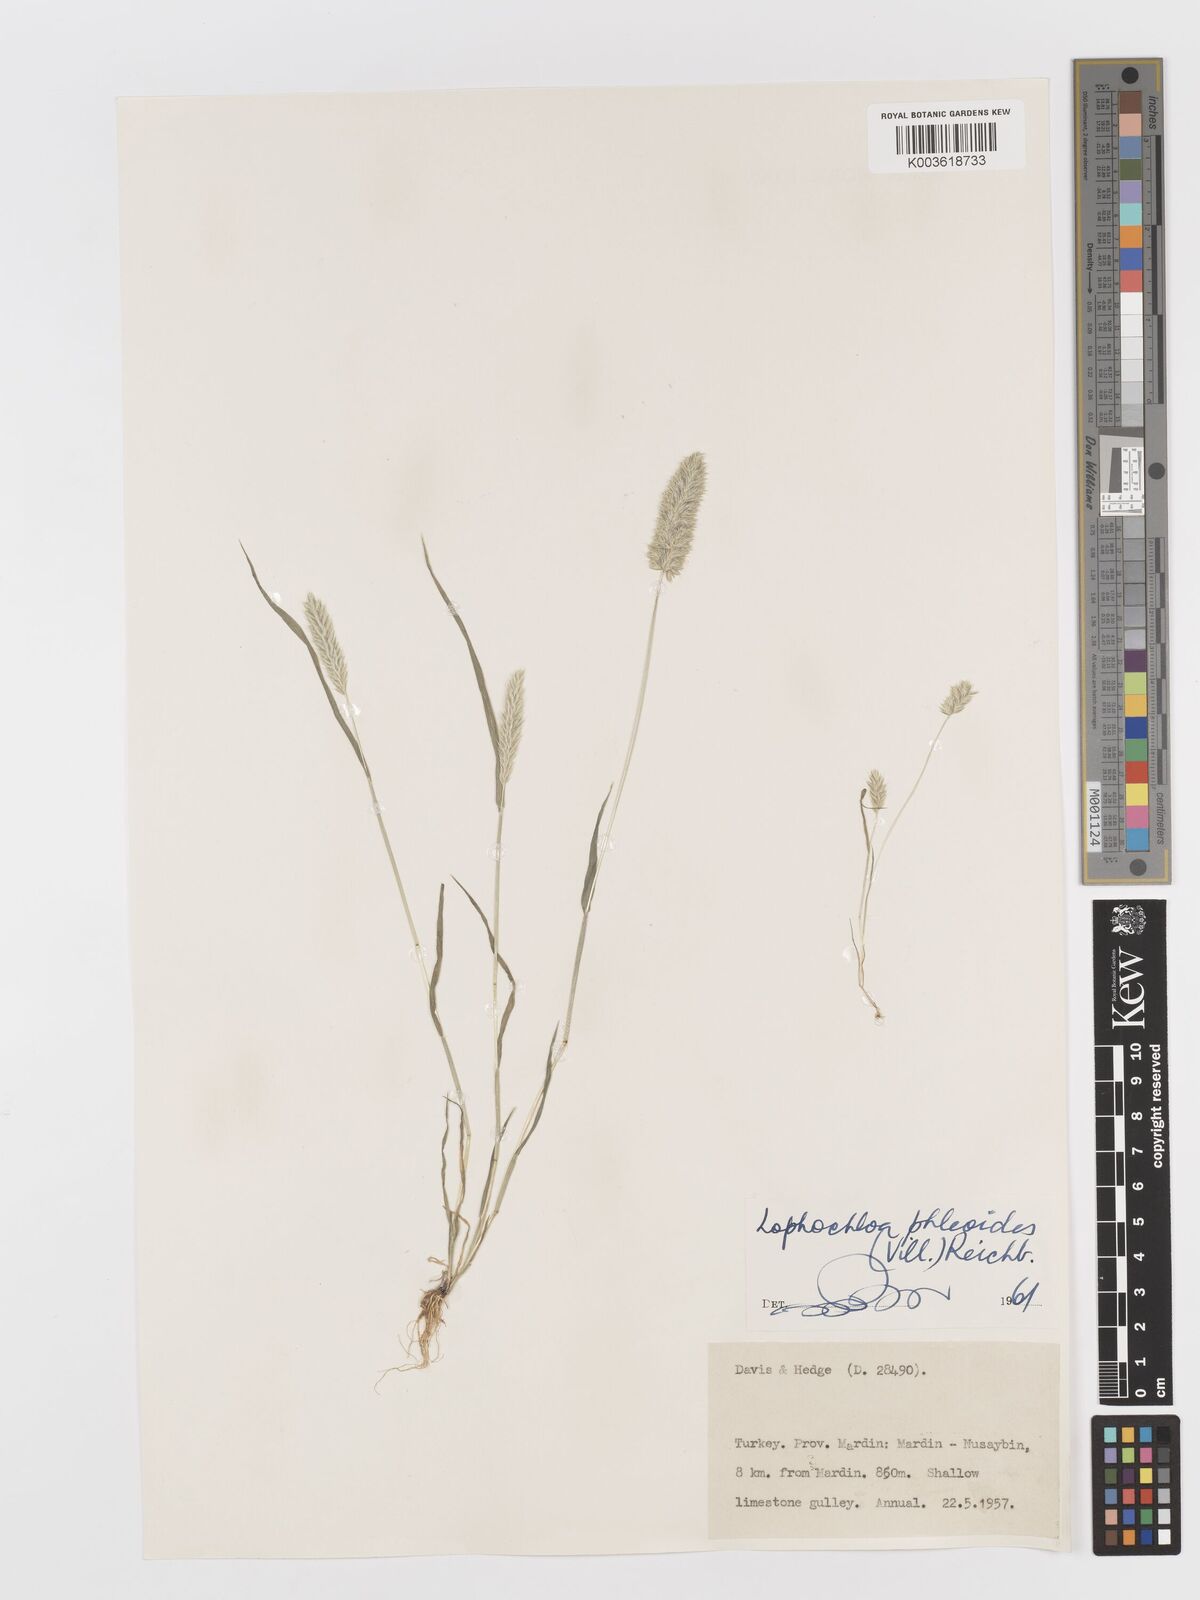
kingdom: Plantae
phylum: Tracheophyta
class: Liliopsida
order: Poales
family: Poaceae
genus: Rostraria
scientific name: Rostraria cristata
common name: Mediterranean hair-grass
